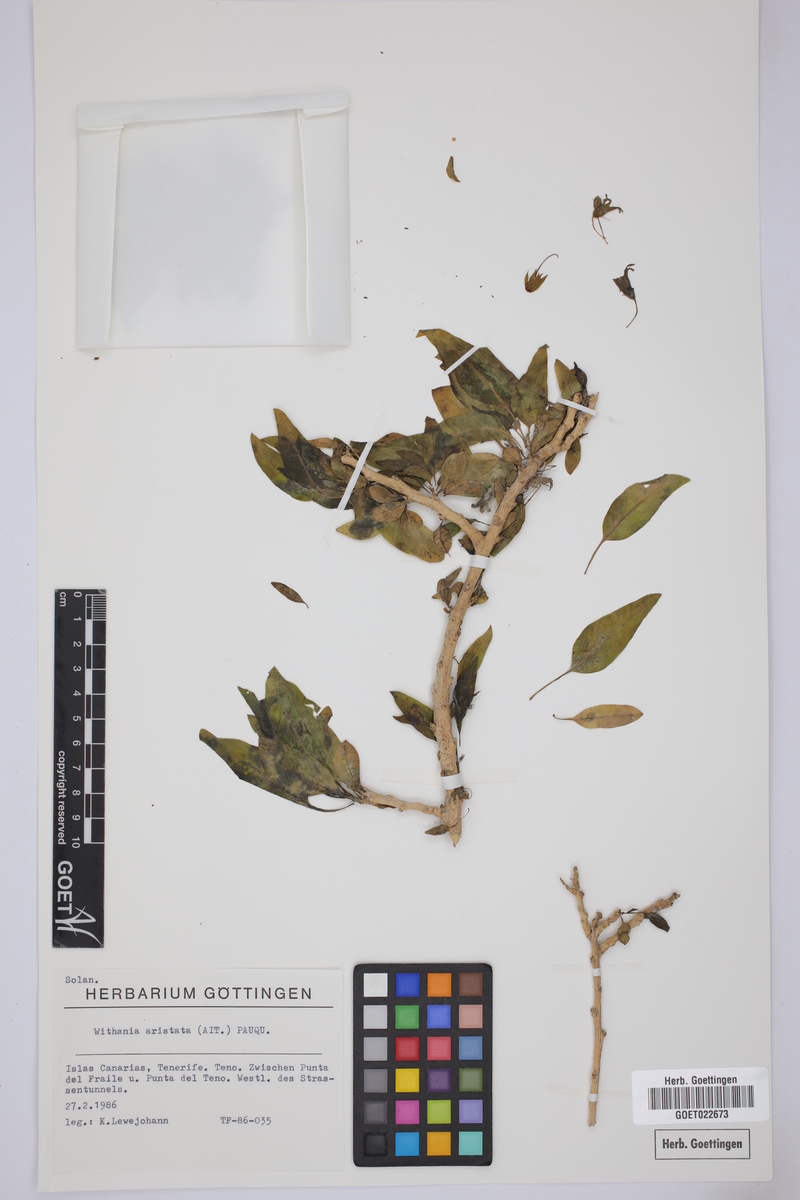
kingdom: Plantae
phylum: Tracheophyta
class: Magnoliopsida
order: Solanales
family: Solanaceae
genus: Withania
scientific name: Withania aristata
